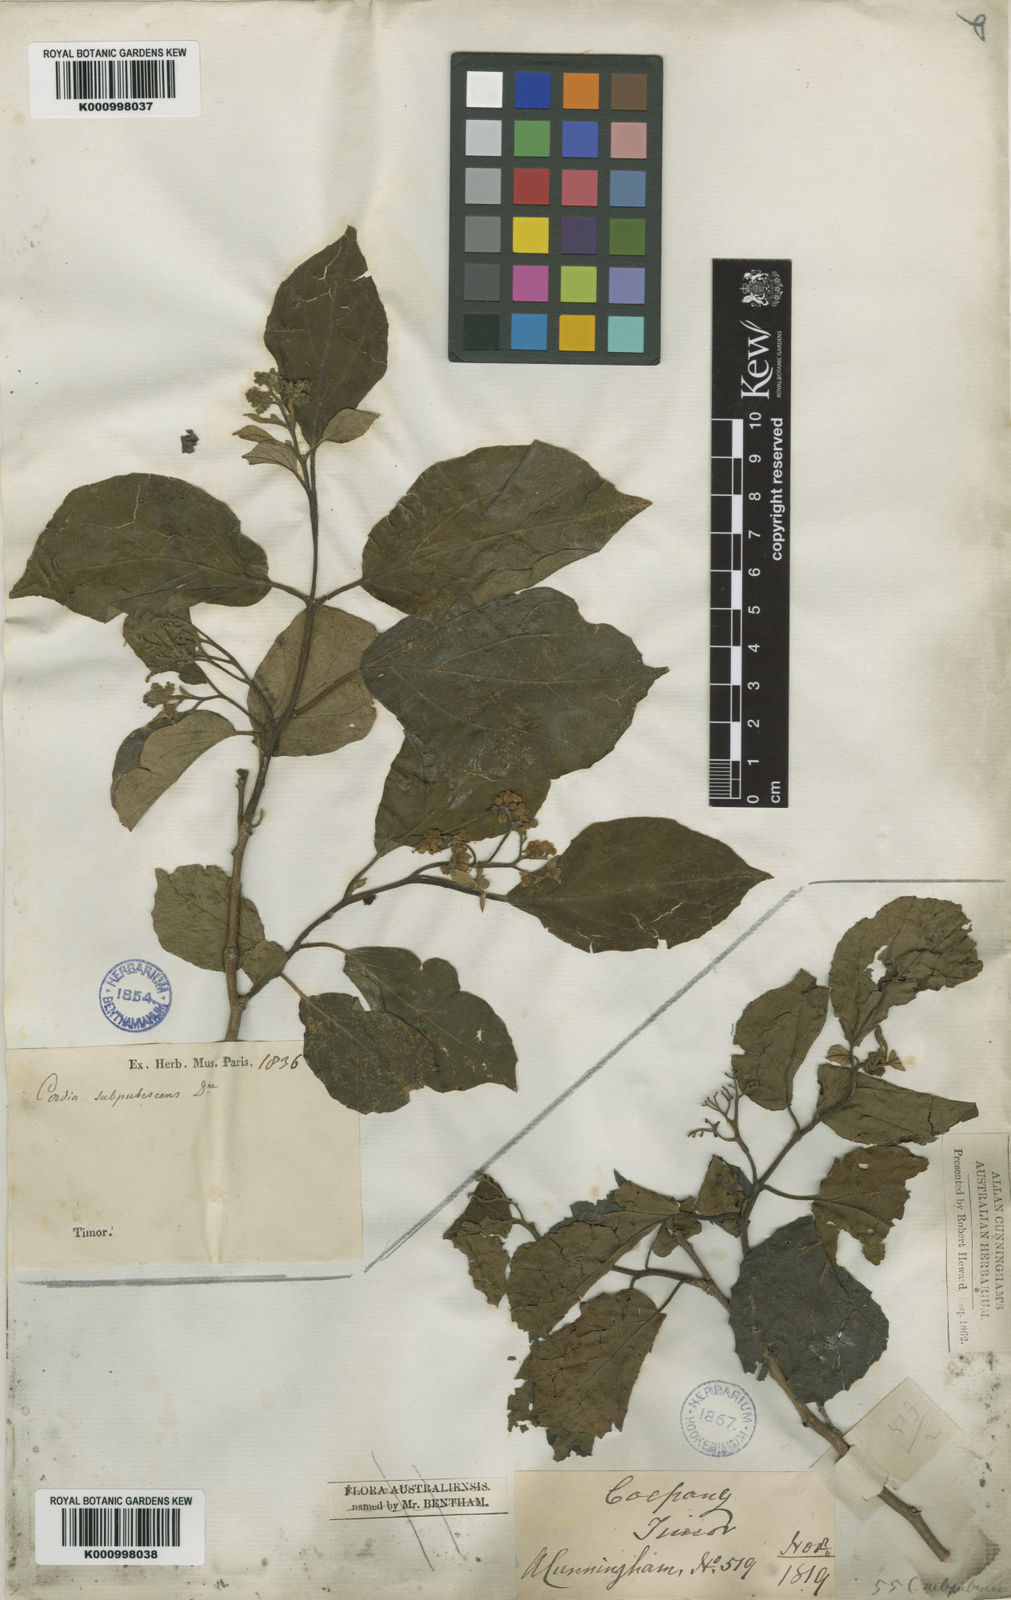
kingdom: Plantae
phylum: Tracheophyta
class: Magnoliopsida
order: Boraginales
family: Cordiaceae
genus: Cordia
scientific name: Cordia dichotoma
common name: Fragrant manjack
